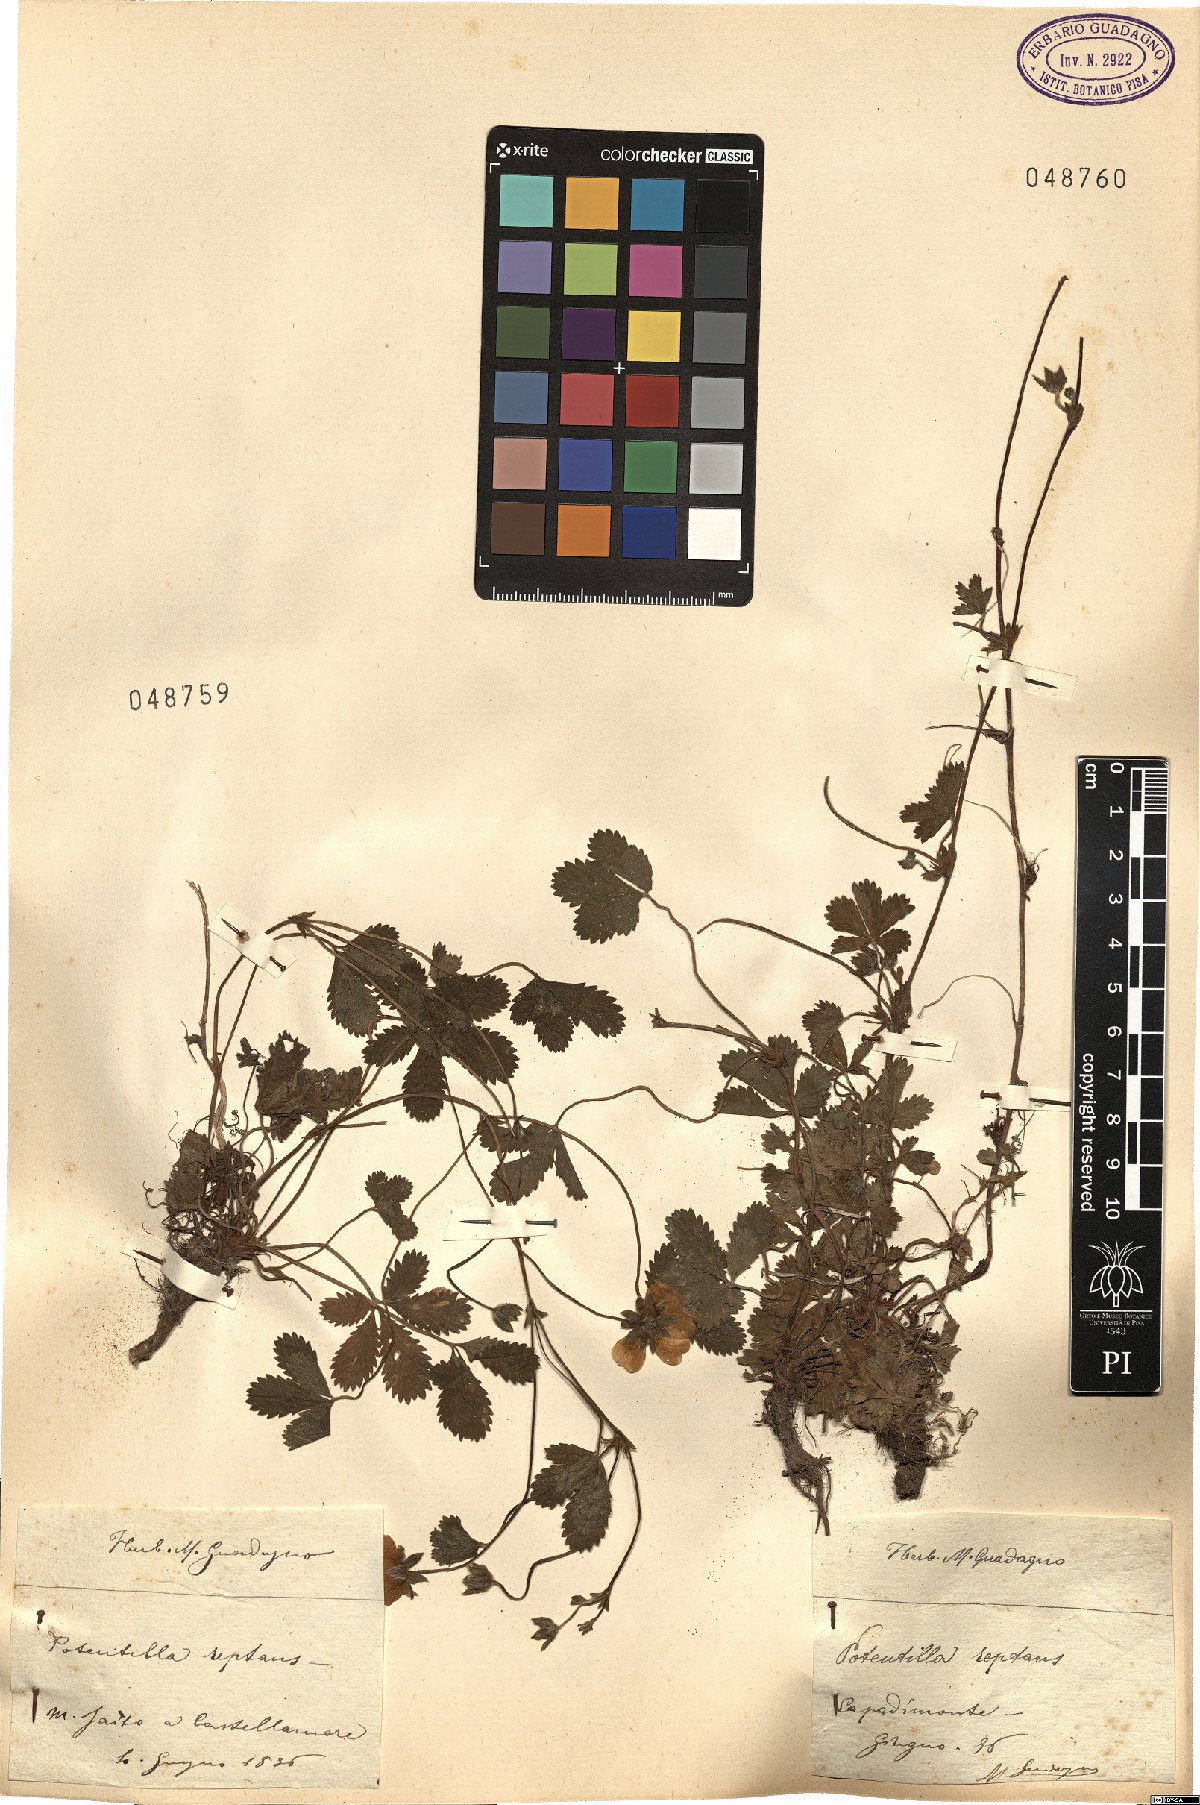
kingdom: Plantae
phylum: Tracheophyta
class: Magnoliopsida
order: Rosales
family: Rosaceae
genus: Potentilla
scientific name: Potentilla reptans
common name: Creeping cinquefoil
